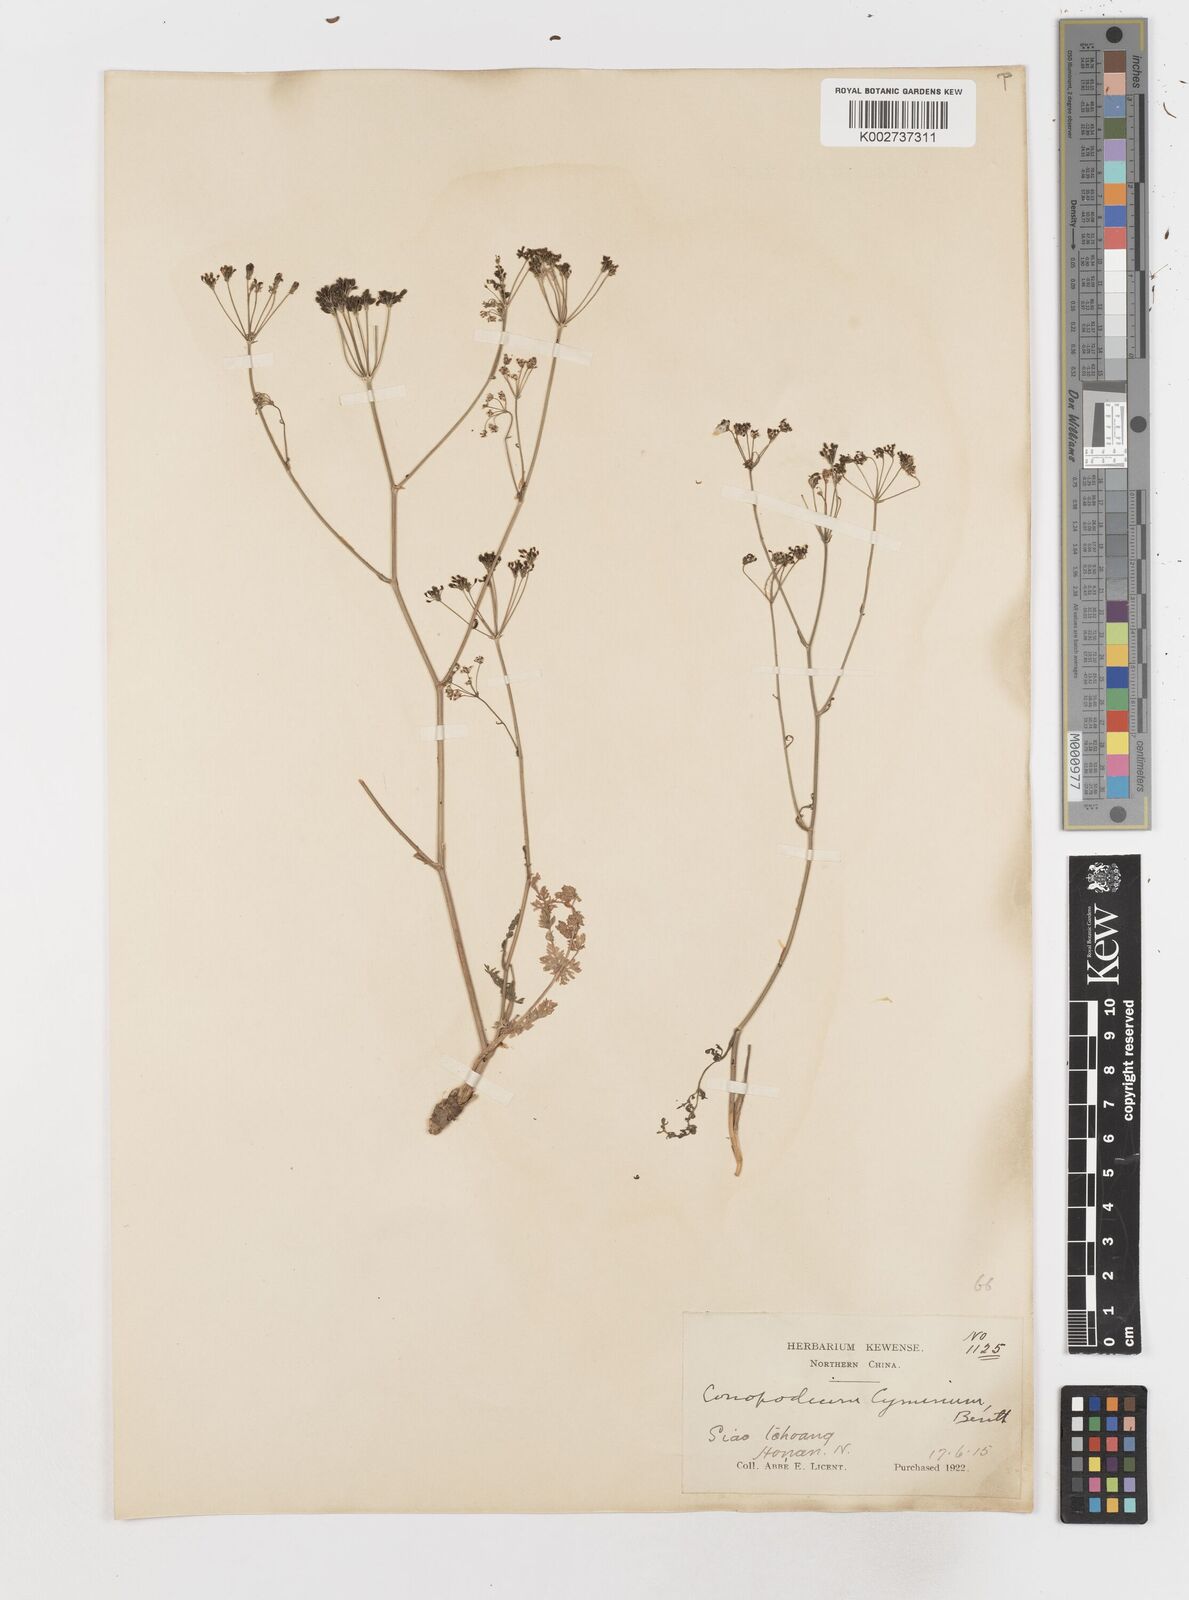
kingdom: Plantae
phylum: Tracheophyta
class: Magnoliopsida
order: Apiales
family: Apiaceae
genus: Sphallerocarpus
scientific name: Sphallerocarpus gracilis
